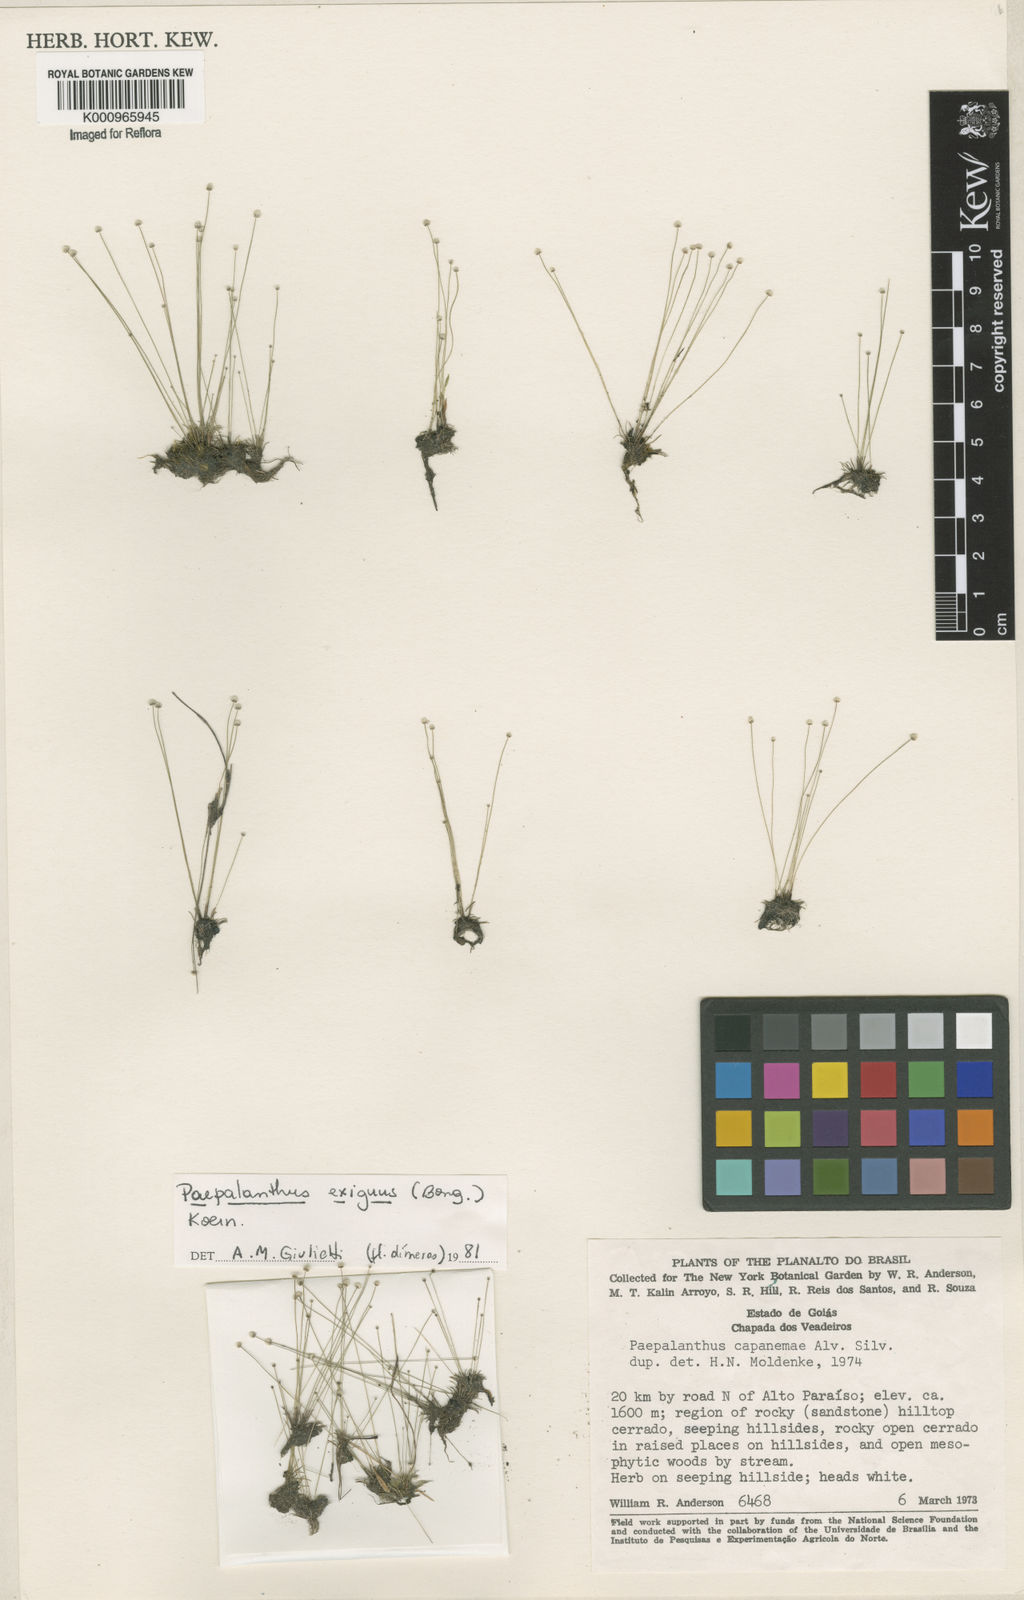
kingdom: Plantae
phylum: Tracheophyta
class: Liliopsida
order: Poales
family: Eriocaulaceae
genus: Paepalanthus
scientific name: Paepalanthus
